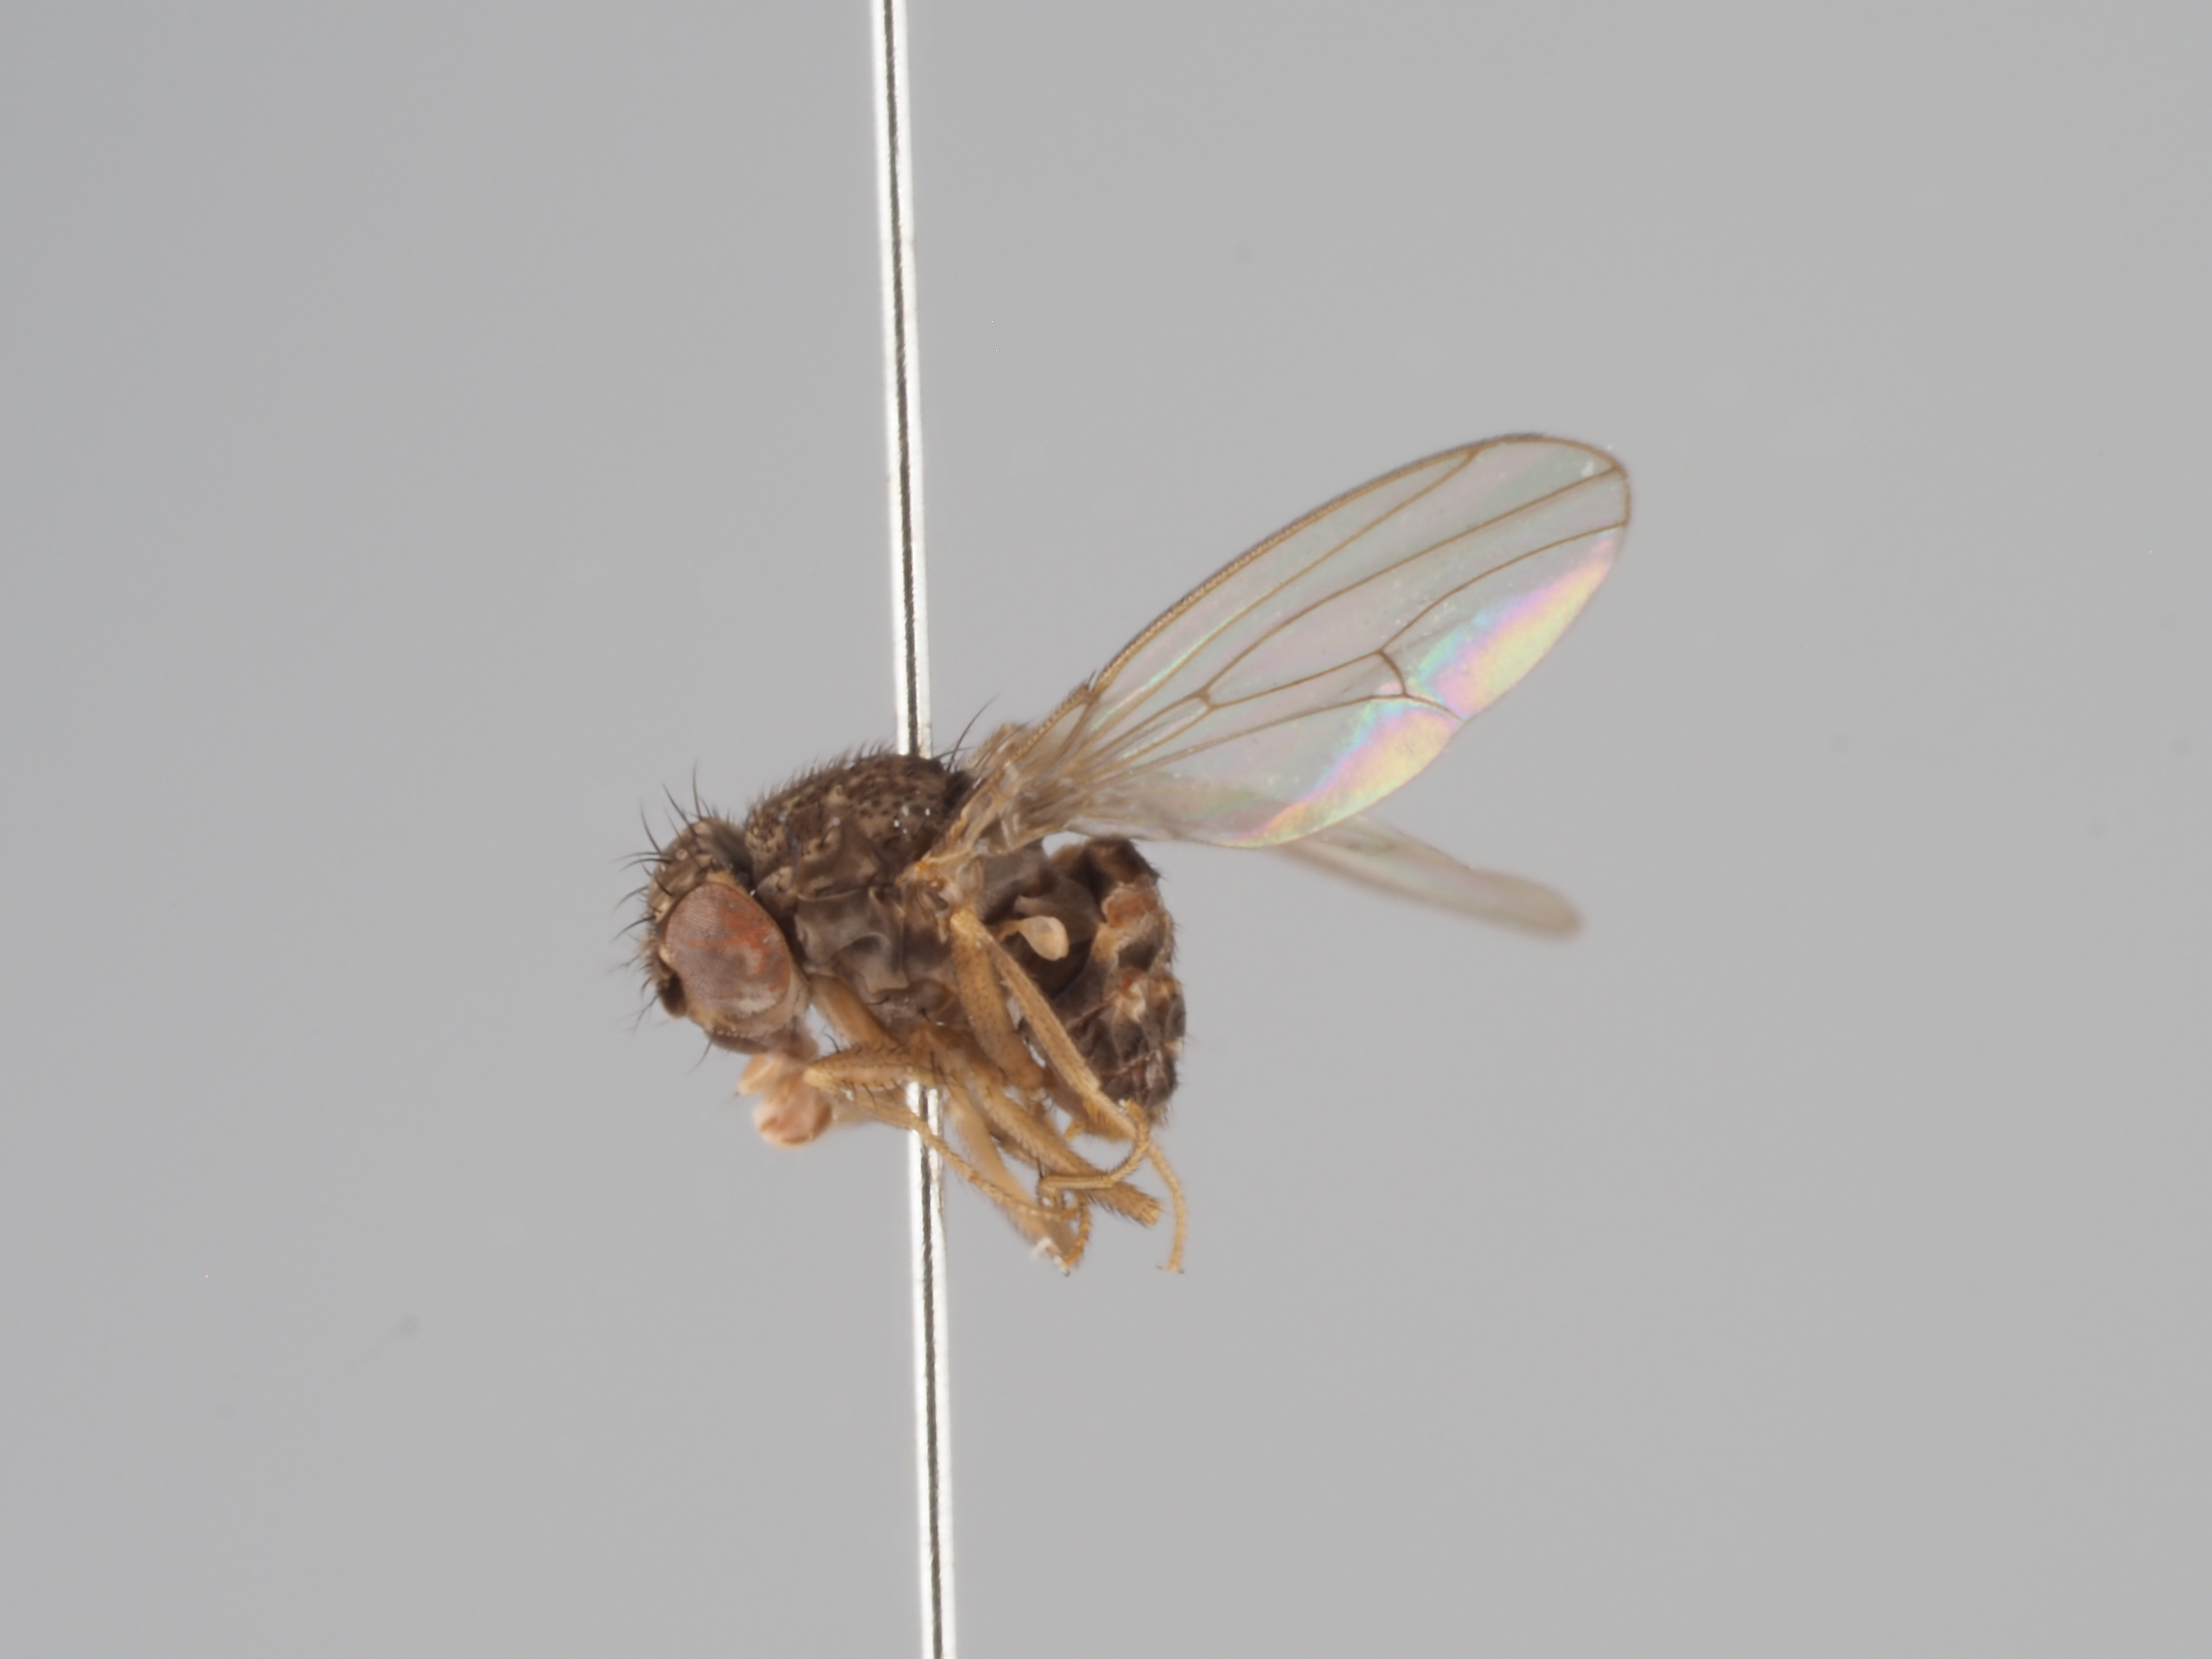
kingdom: Animalia
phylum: Arthropoda
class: Insecta
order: Diptera
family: Drosophilidae
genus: Drosophila
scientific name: Drosophila hydei
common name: Pomace fly
